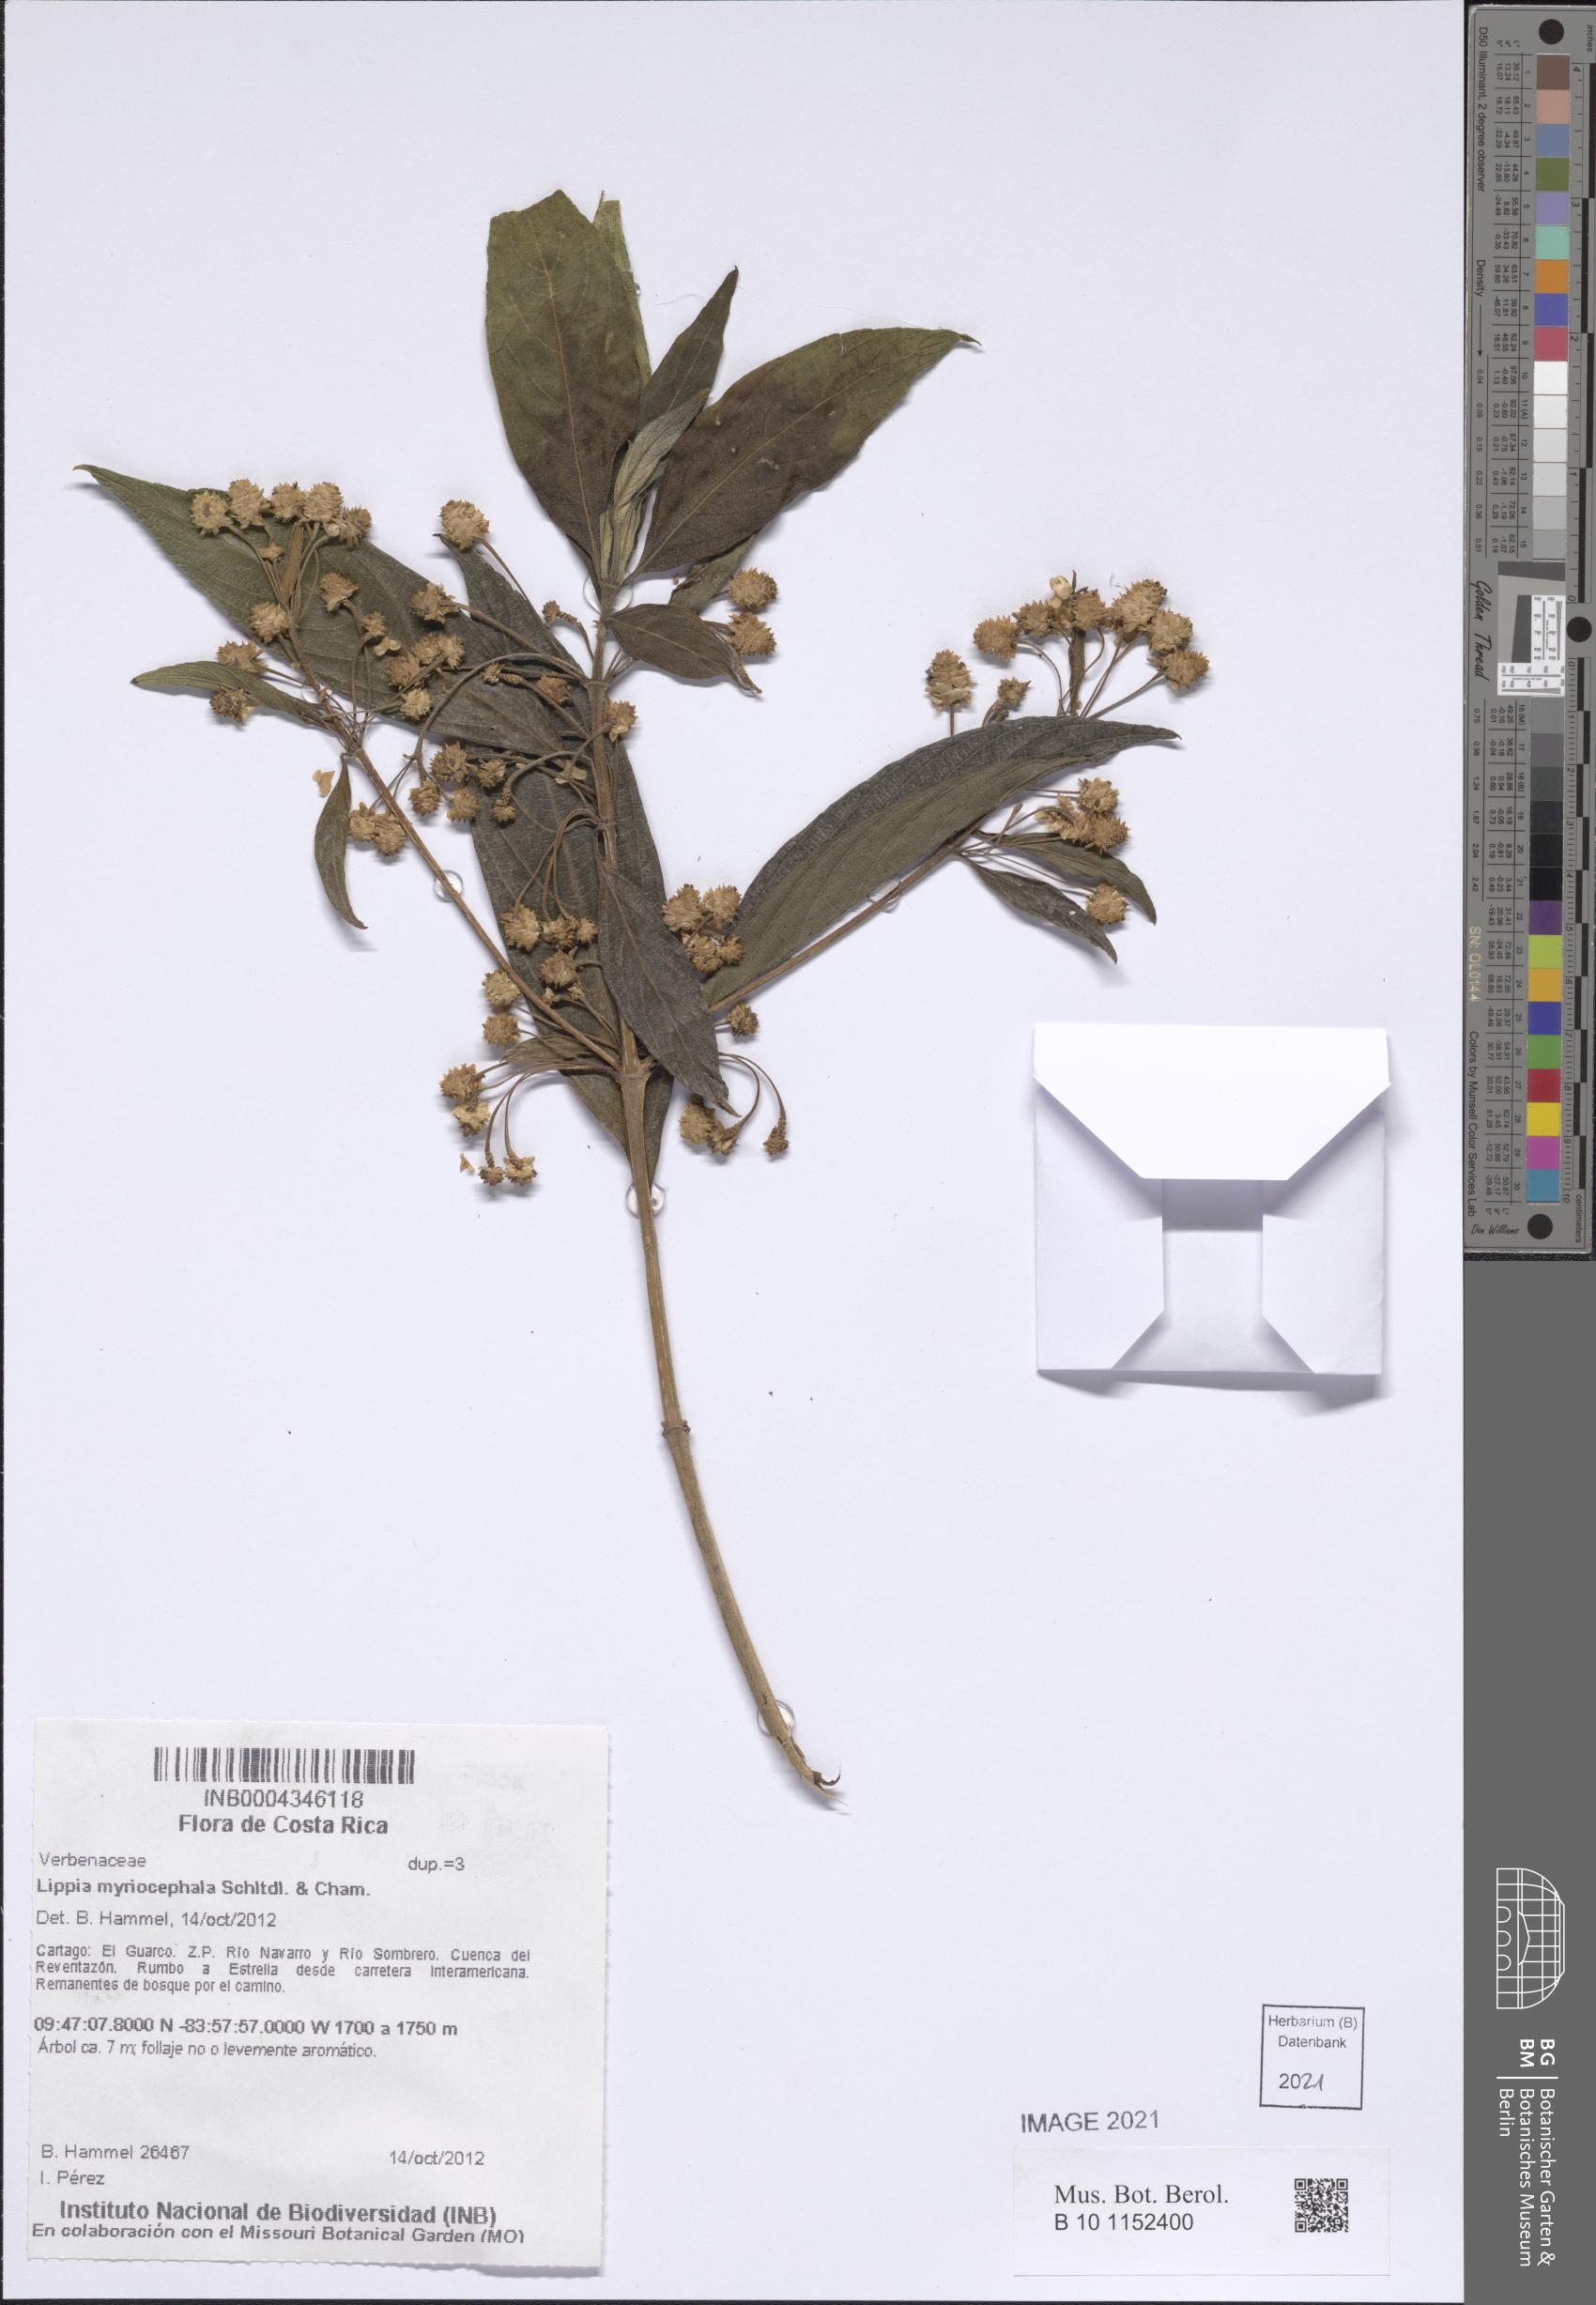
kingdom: Plantae
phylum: Tracheophyta
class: Magnoliopsida
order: Lamiales
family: Verbenaceae
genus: Lippia
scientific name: Lippia myriocephala
